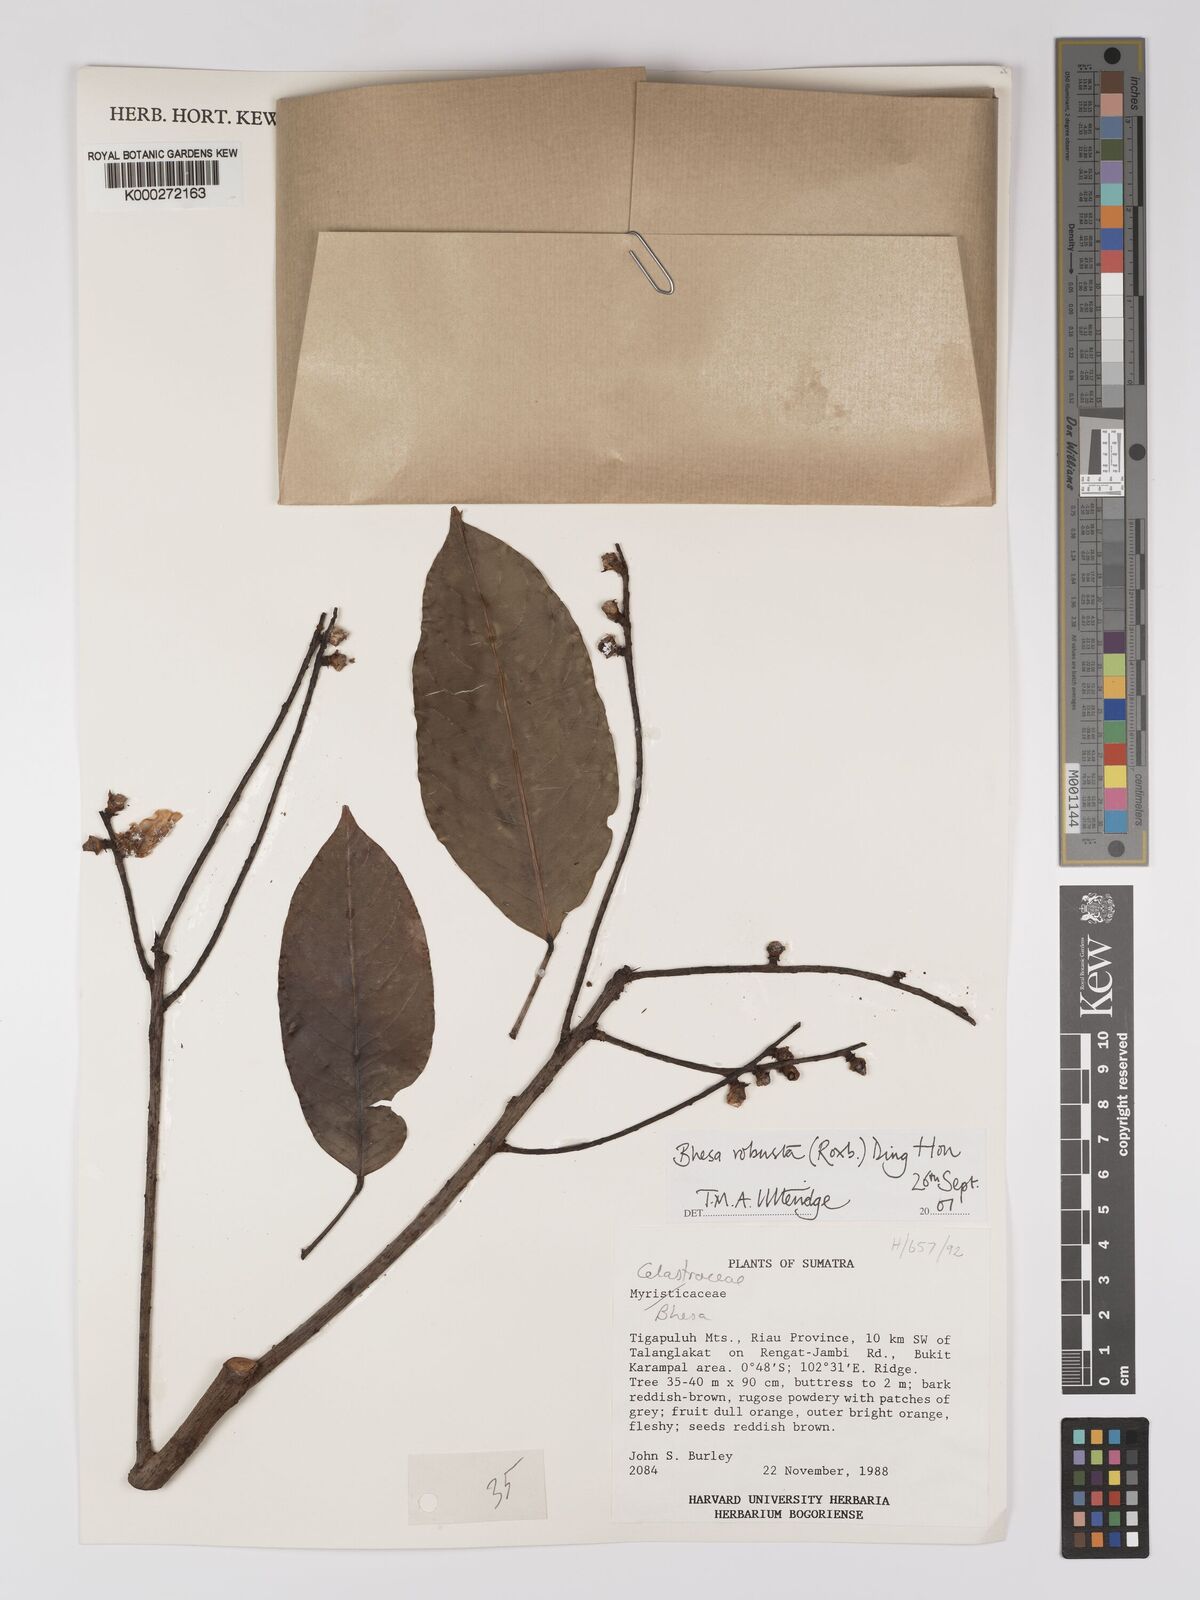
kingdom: Plantae
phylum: Tracheophyta
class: Magnoliopsida
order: Malpighiales
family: Centroplacaceae
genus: Bhesa
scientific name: Bhesa robusta
